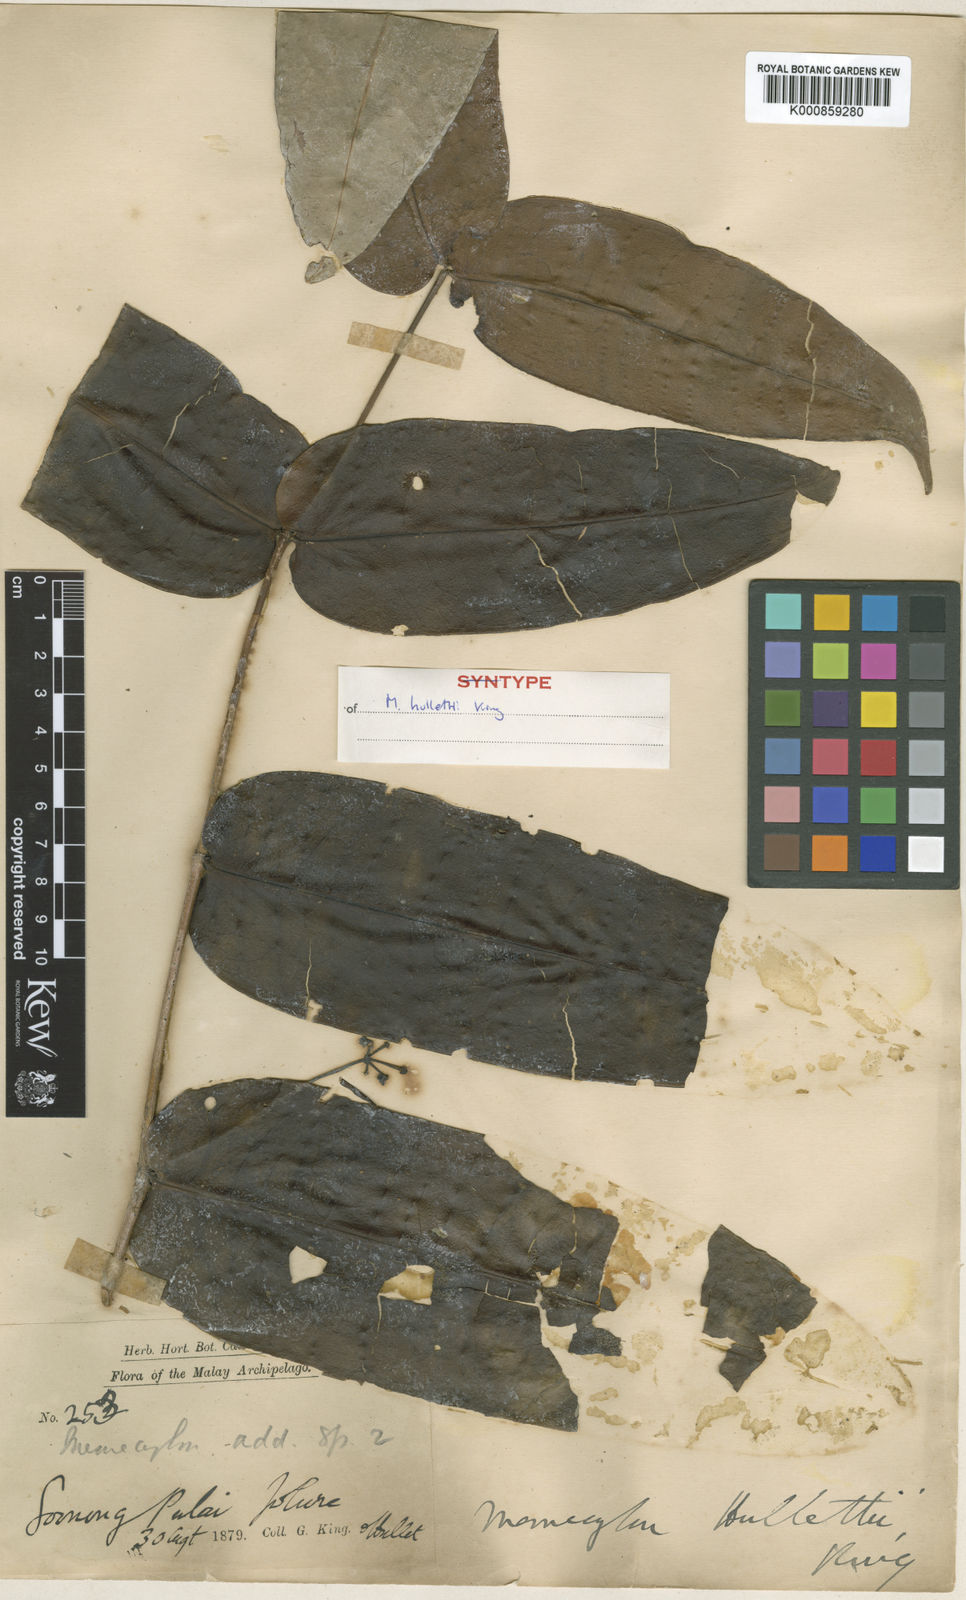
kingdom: Plantae
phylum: Tracheophyta
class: Magnoliopsida
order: Myrtales
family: Melastomataceae
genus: Memecylon
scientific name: Memecylon hullettii
